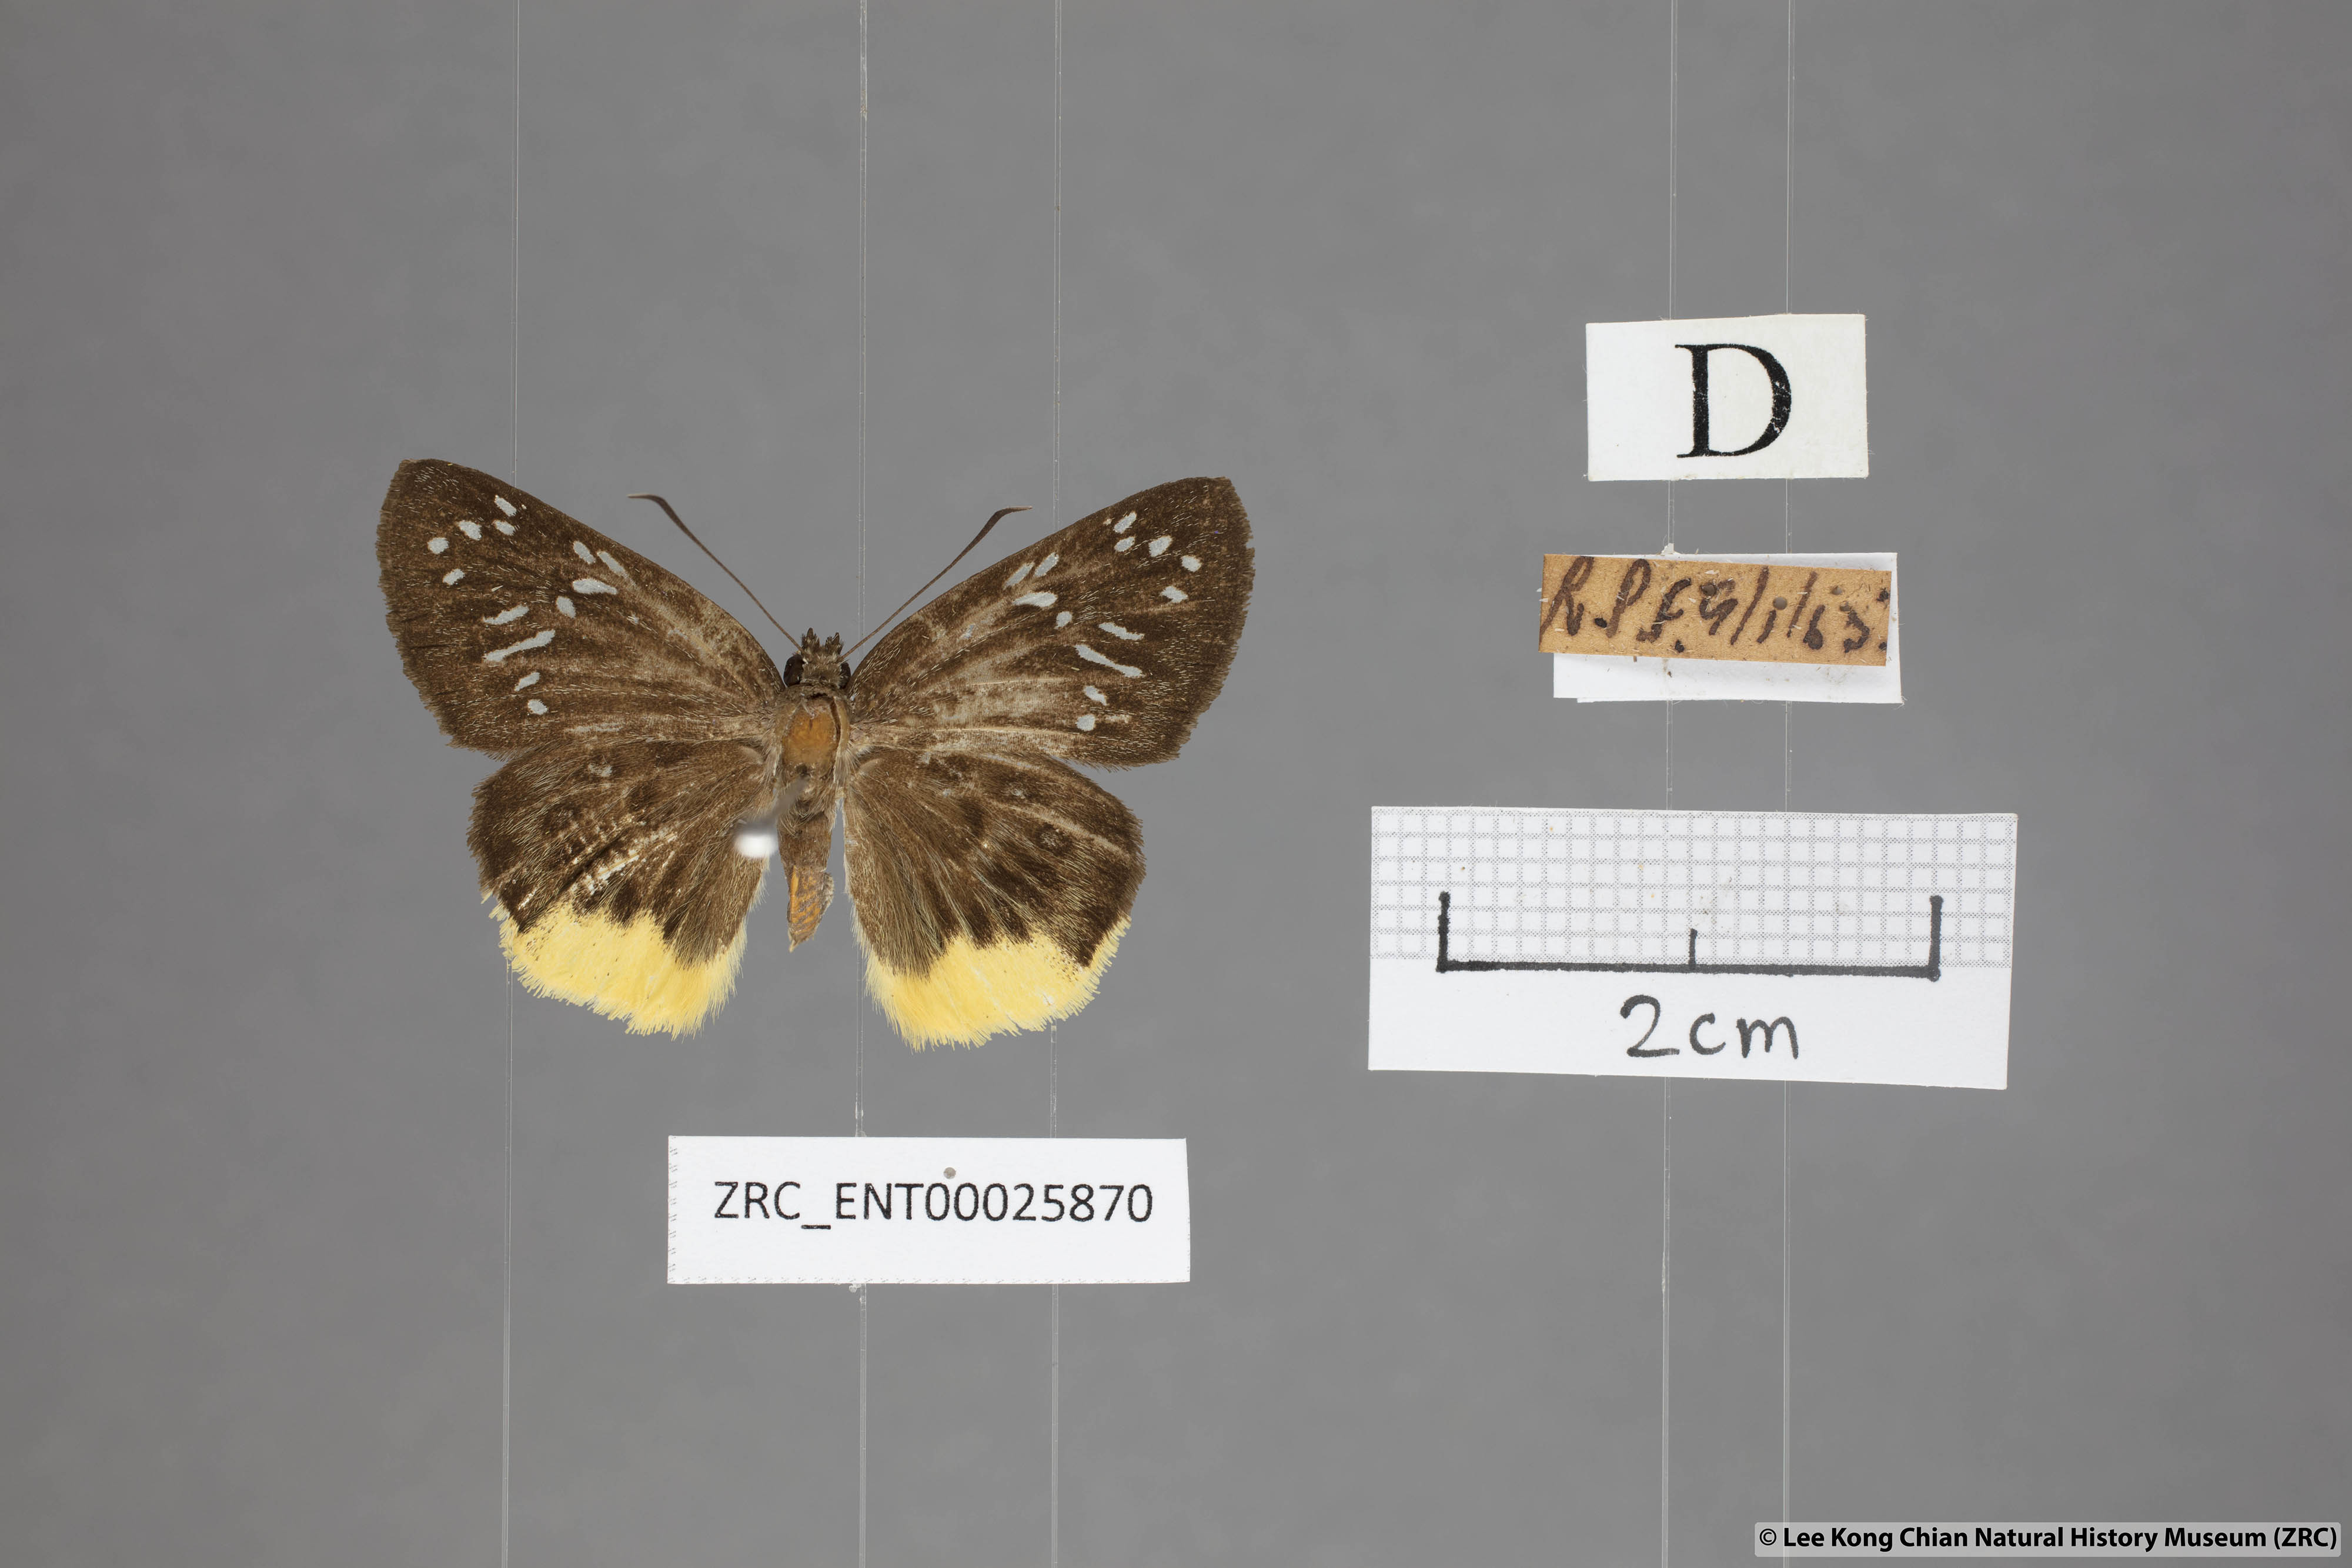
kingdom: Animalia
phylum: Arthropoda
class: Insecta
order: Lepidoptera
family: Hesperiidae
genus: Mooreana
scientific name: Mooreana trichoneura
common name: Yellow flat
